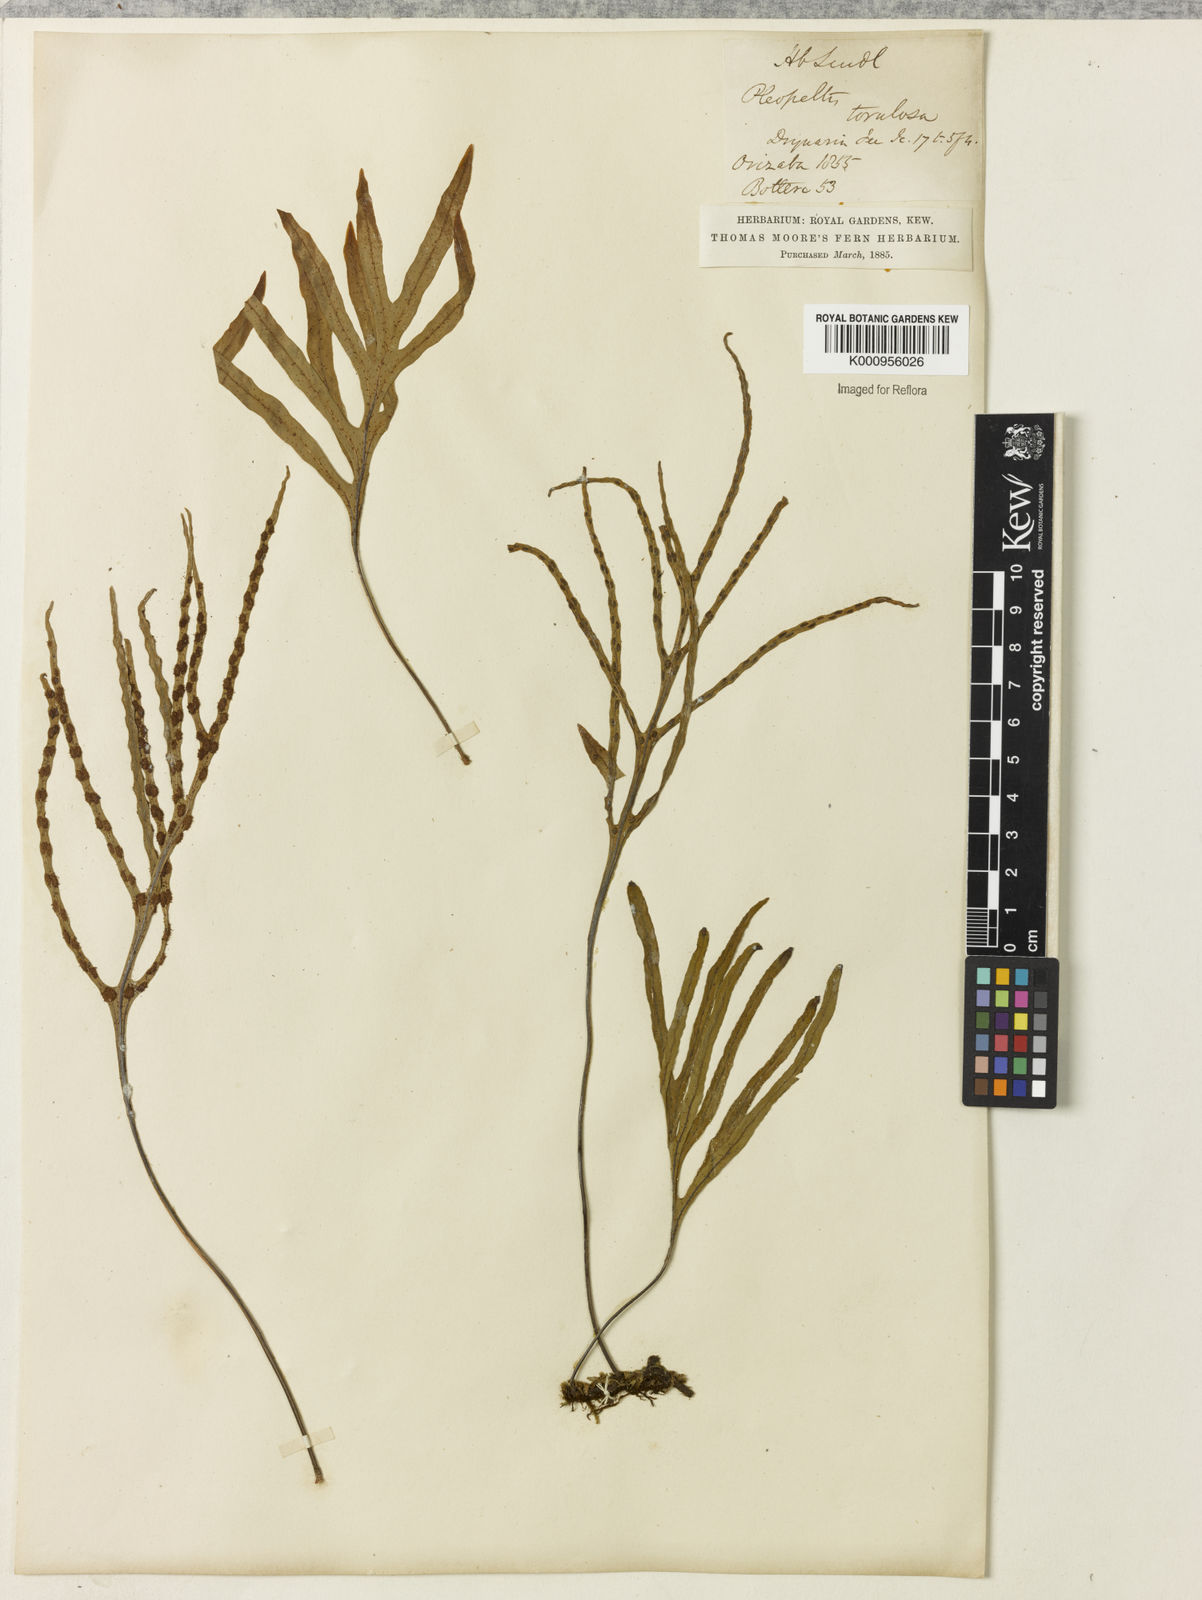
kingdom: Plantae
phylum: Tracheophyta
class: Polypodiopsida
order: Polypodiales
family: Polypodiaceae
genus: Pleopeltis
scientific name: Pleopeltis angusta
